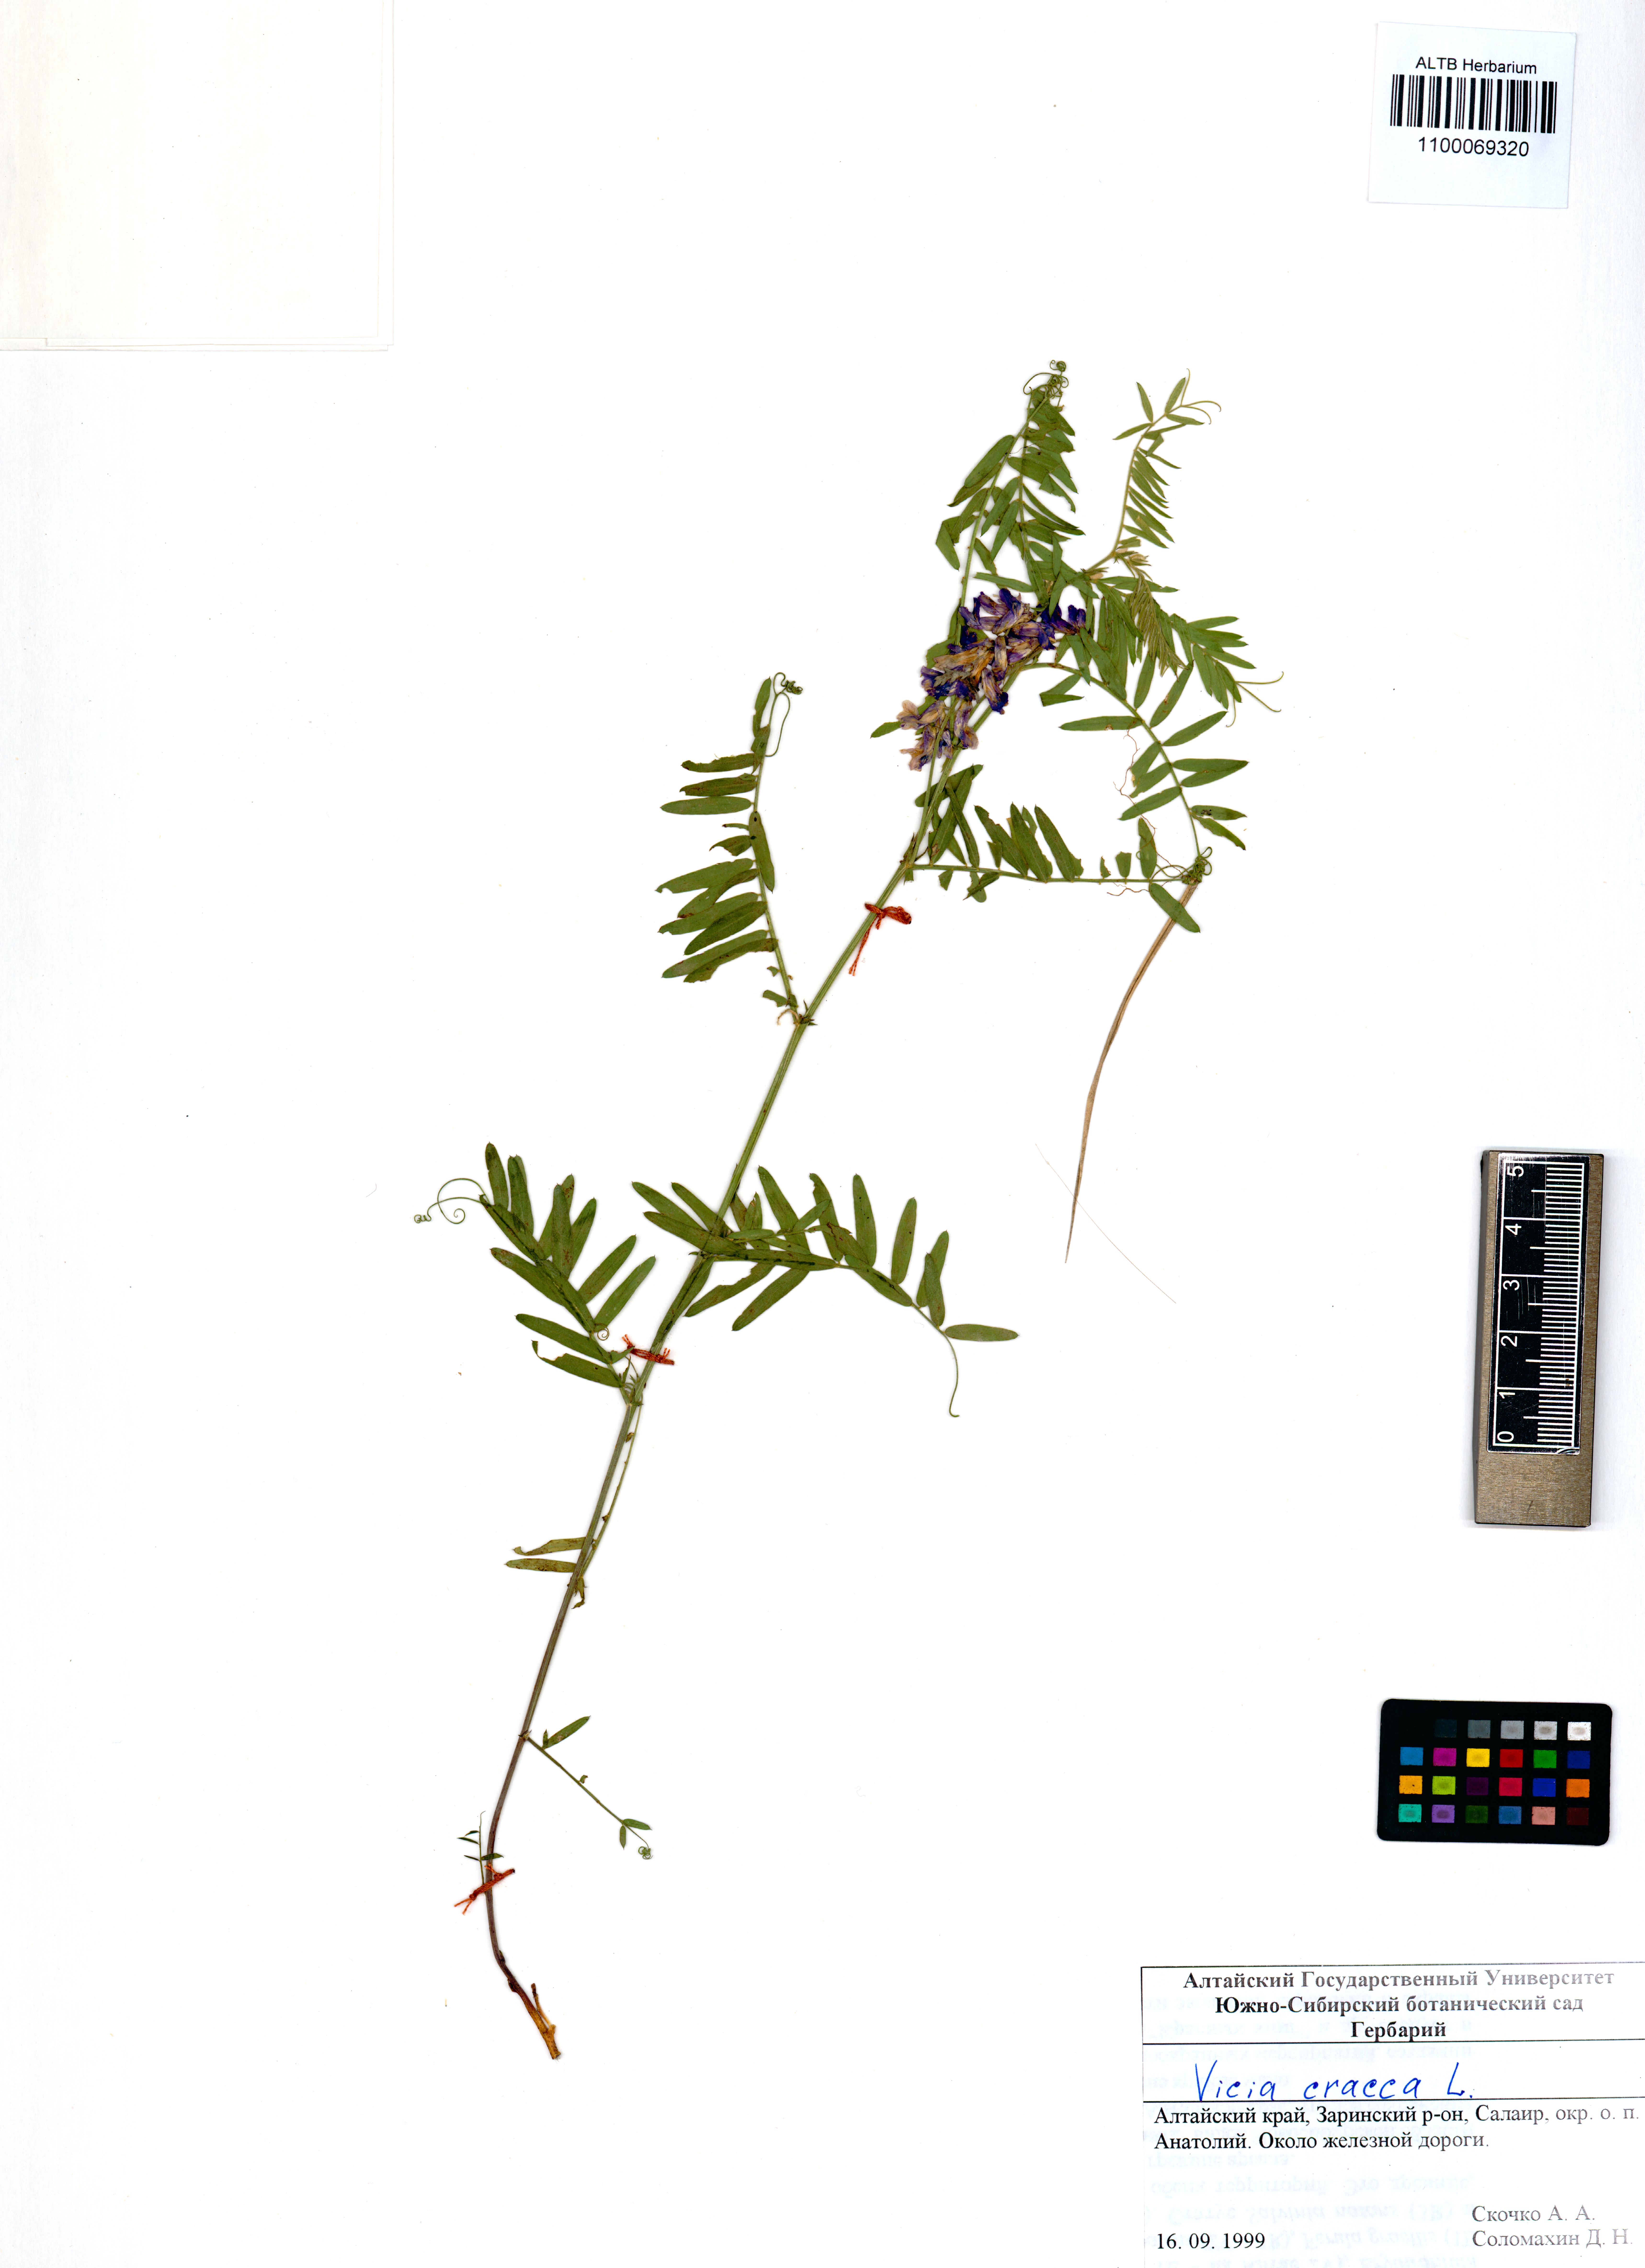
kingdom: Plantae
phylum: Tracheophyta
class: Magnoliopsida
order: Fabales
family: Fabaceae
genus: Vicia
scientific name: Vicia cracca
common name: Bird vetch
